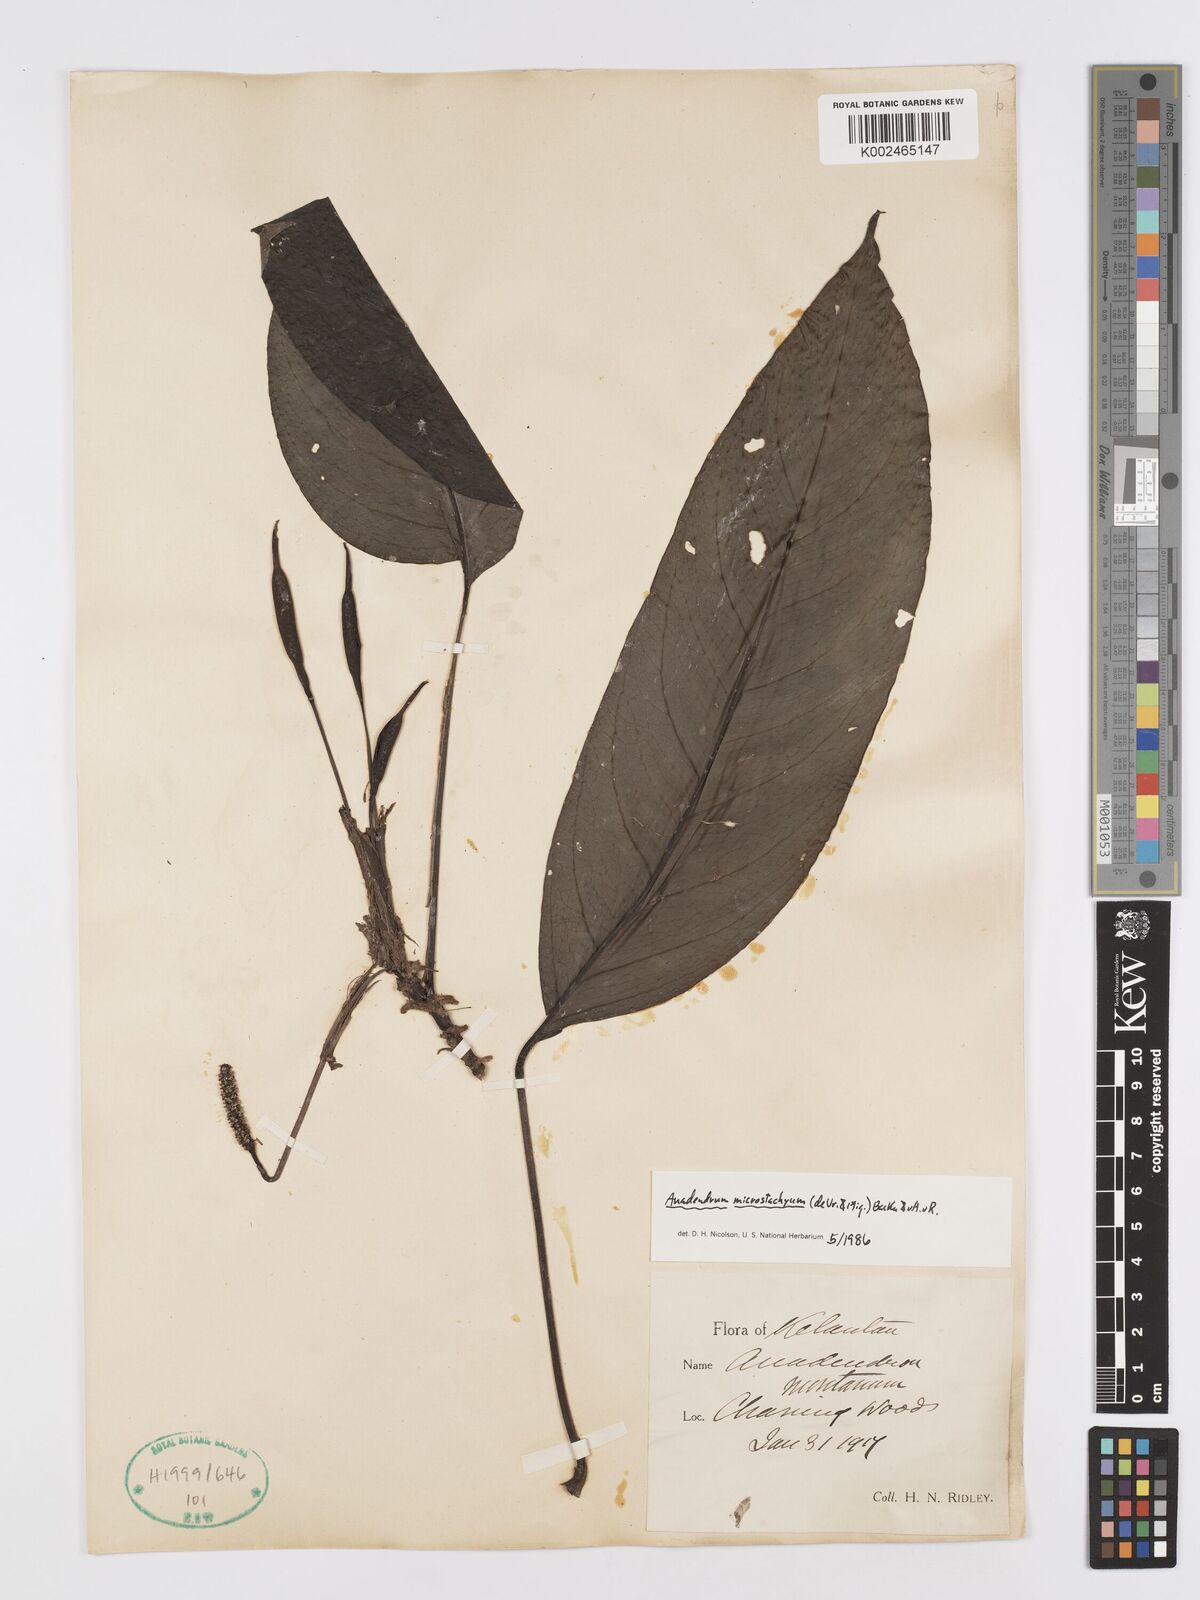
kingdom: Plantae
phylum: Tracheophyta
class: Liliopsida
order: Alismatales
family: Araceae
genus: Anadendrum
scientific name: Anadendrum microstachyum
